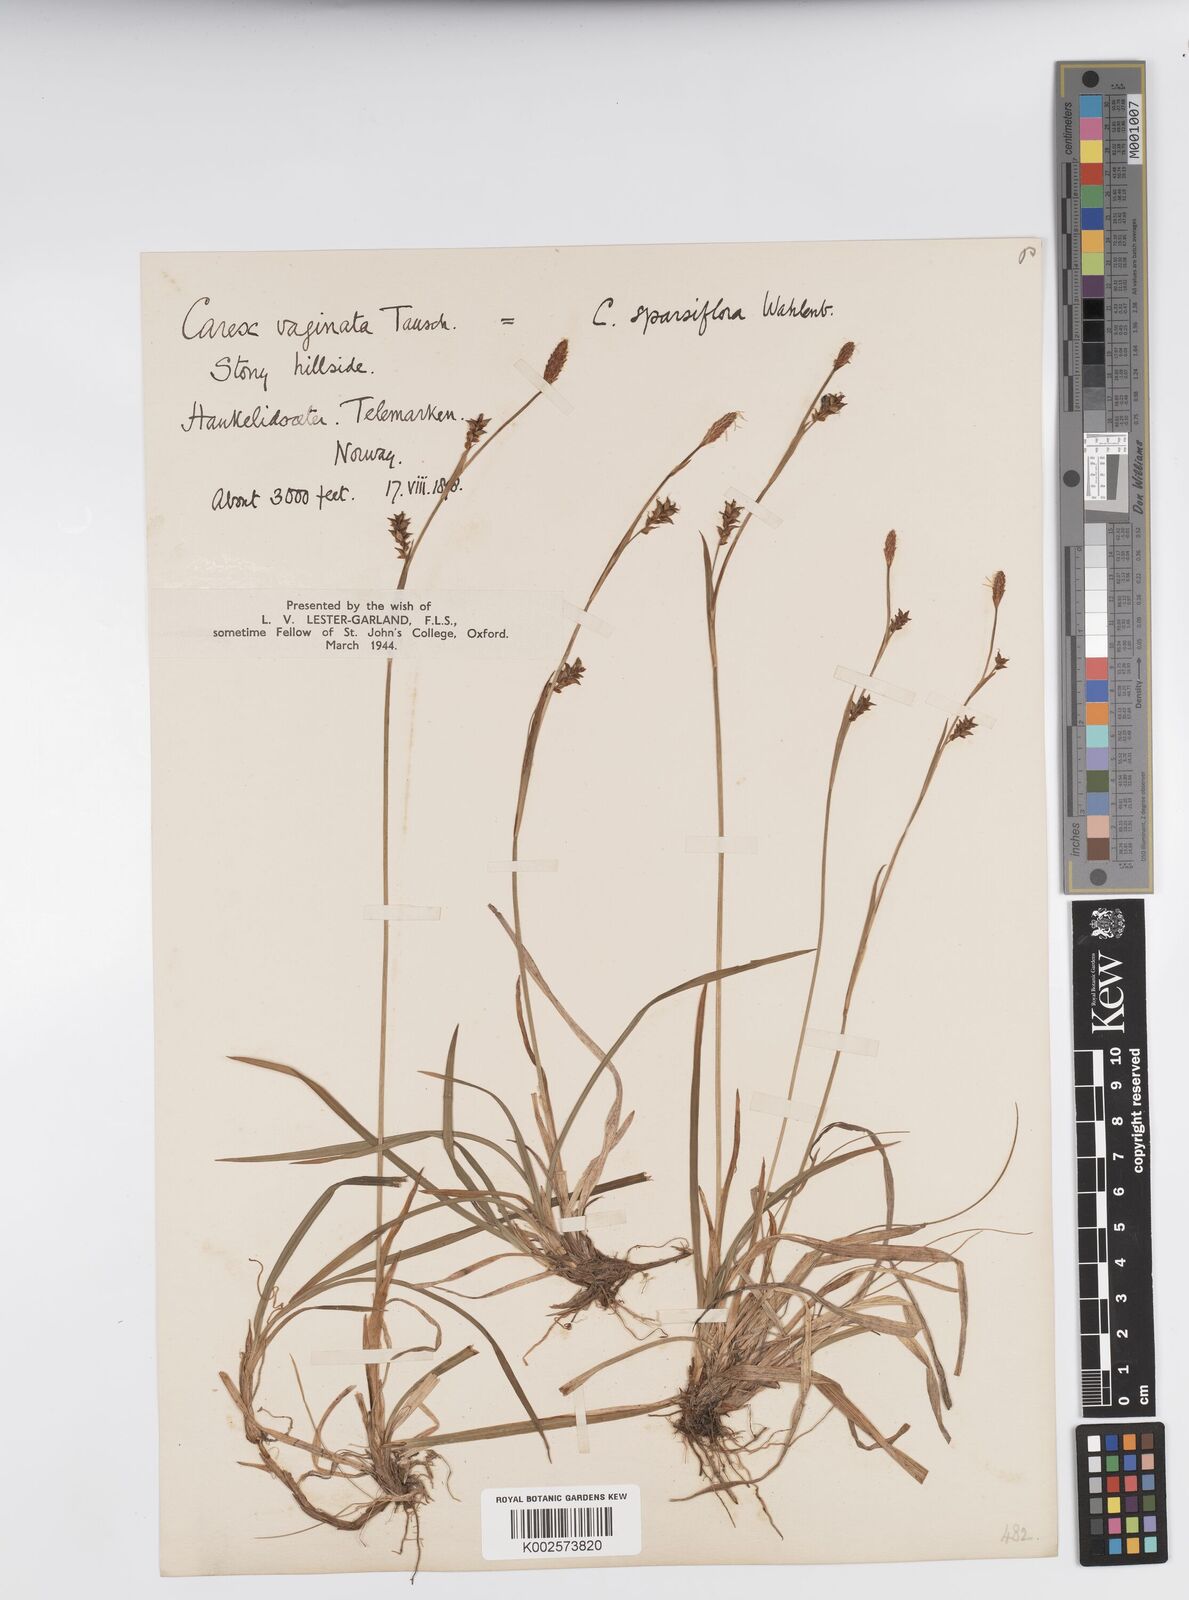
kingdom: Plantae
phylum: Tracheophyta
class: Liliopsida
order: Poales
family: Cyperaceae
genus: Carex
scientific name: Carex vaginata
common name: Sheathed sedge
